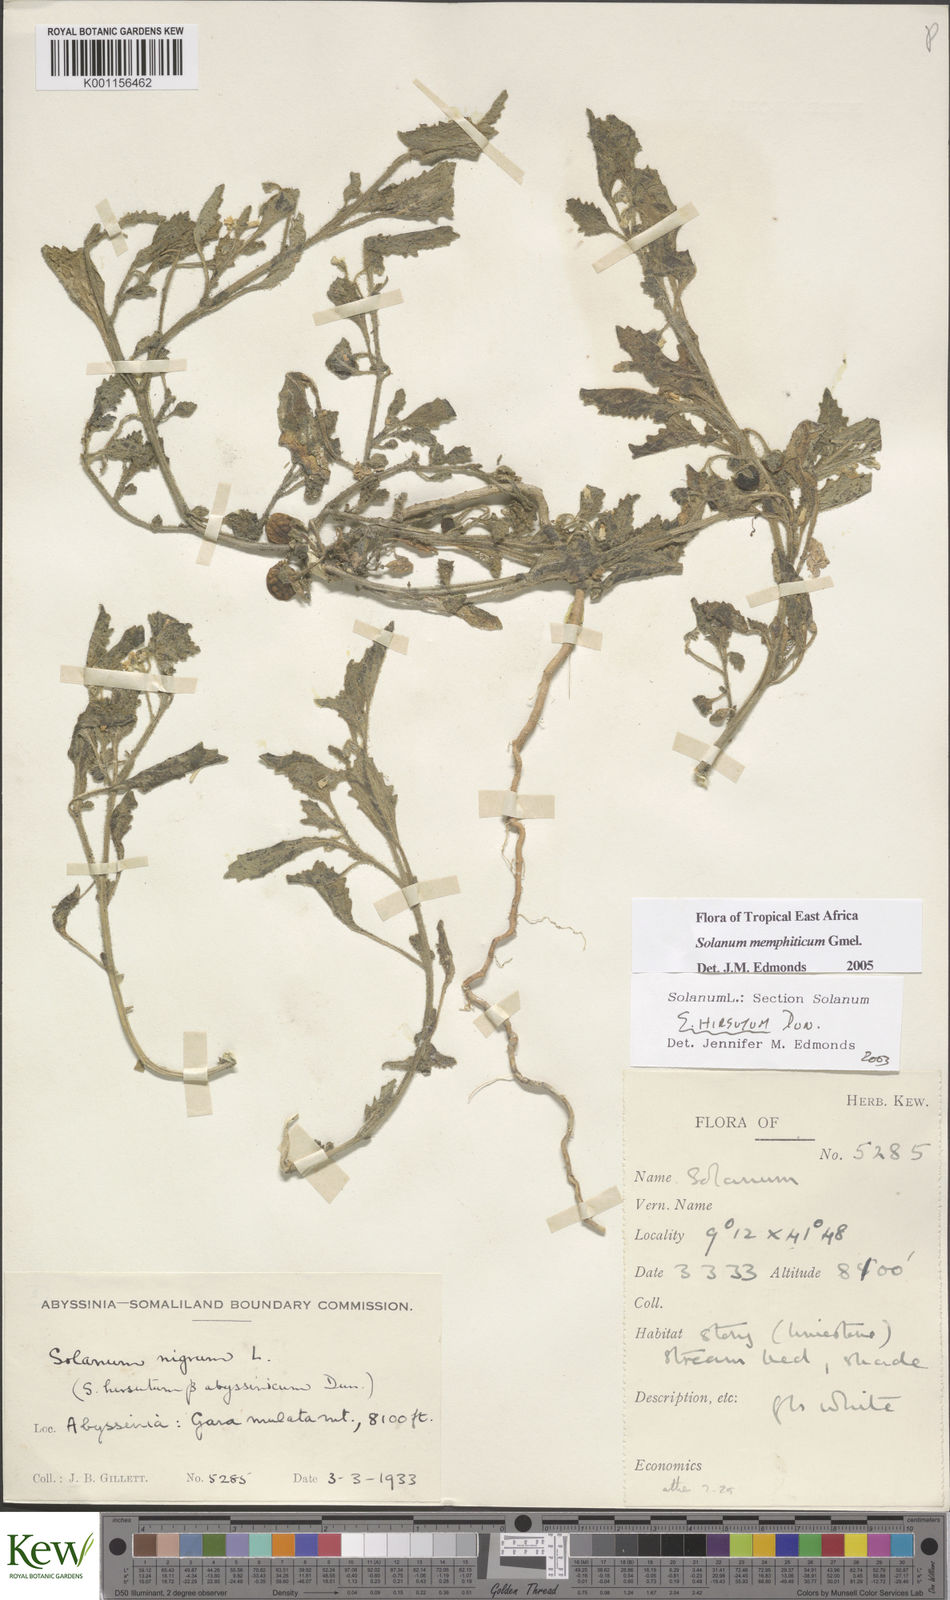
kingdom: Plantae
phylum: Tracheophyta
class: Magnoliopsida
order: Solanales
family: Solanaceae
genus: Solanum
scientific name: Solanum memphiticum
